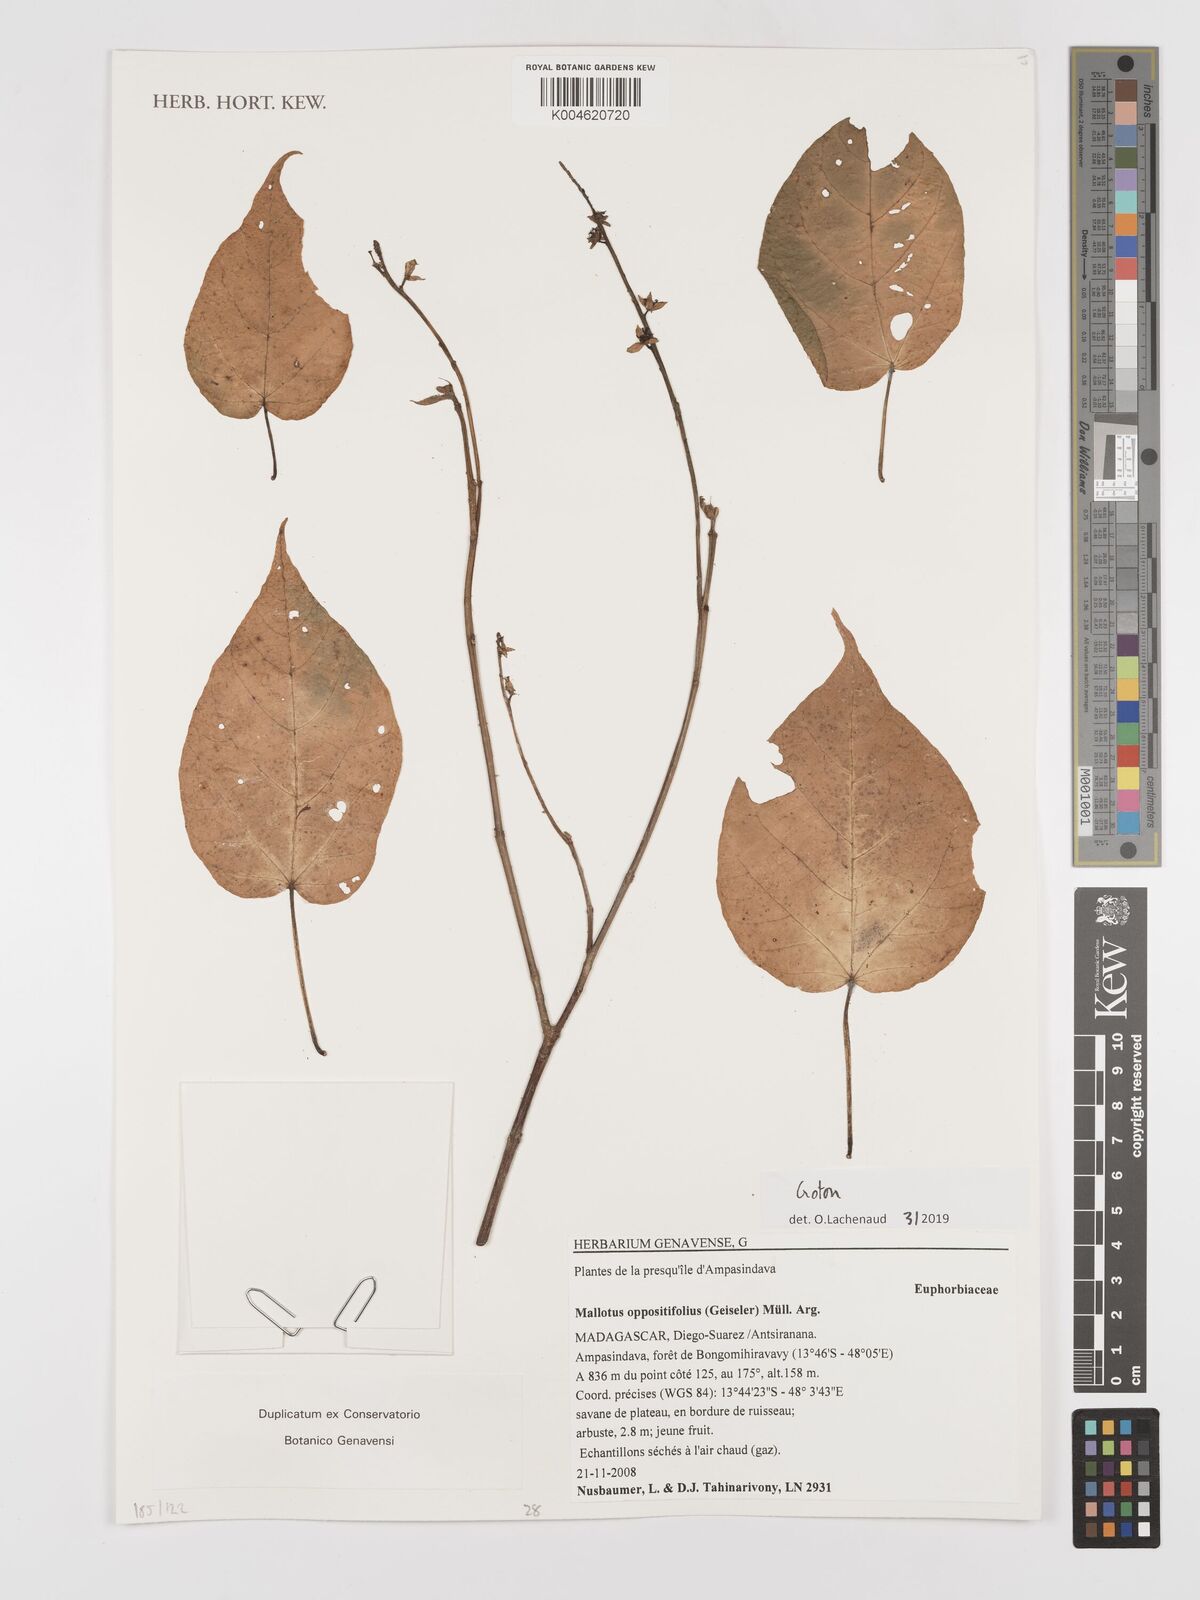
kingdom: Plantae
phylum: Tracheophyta
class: Magnoliopsida
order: Malpighiales
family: Euphorbiaceae
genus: Croton
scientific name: Croton
